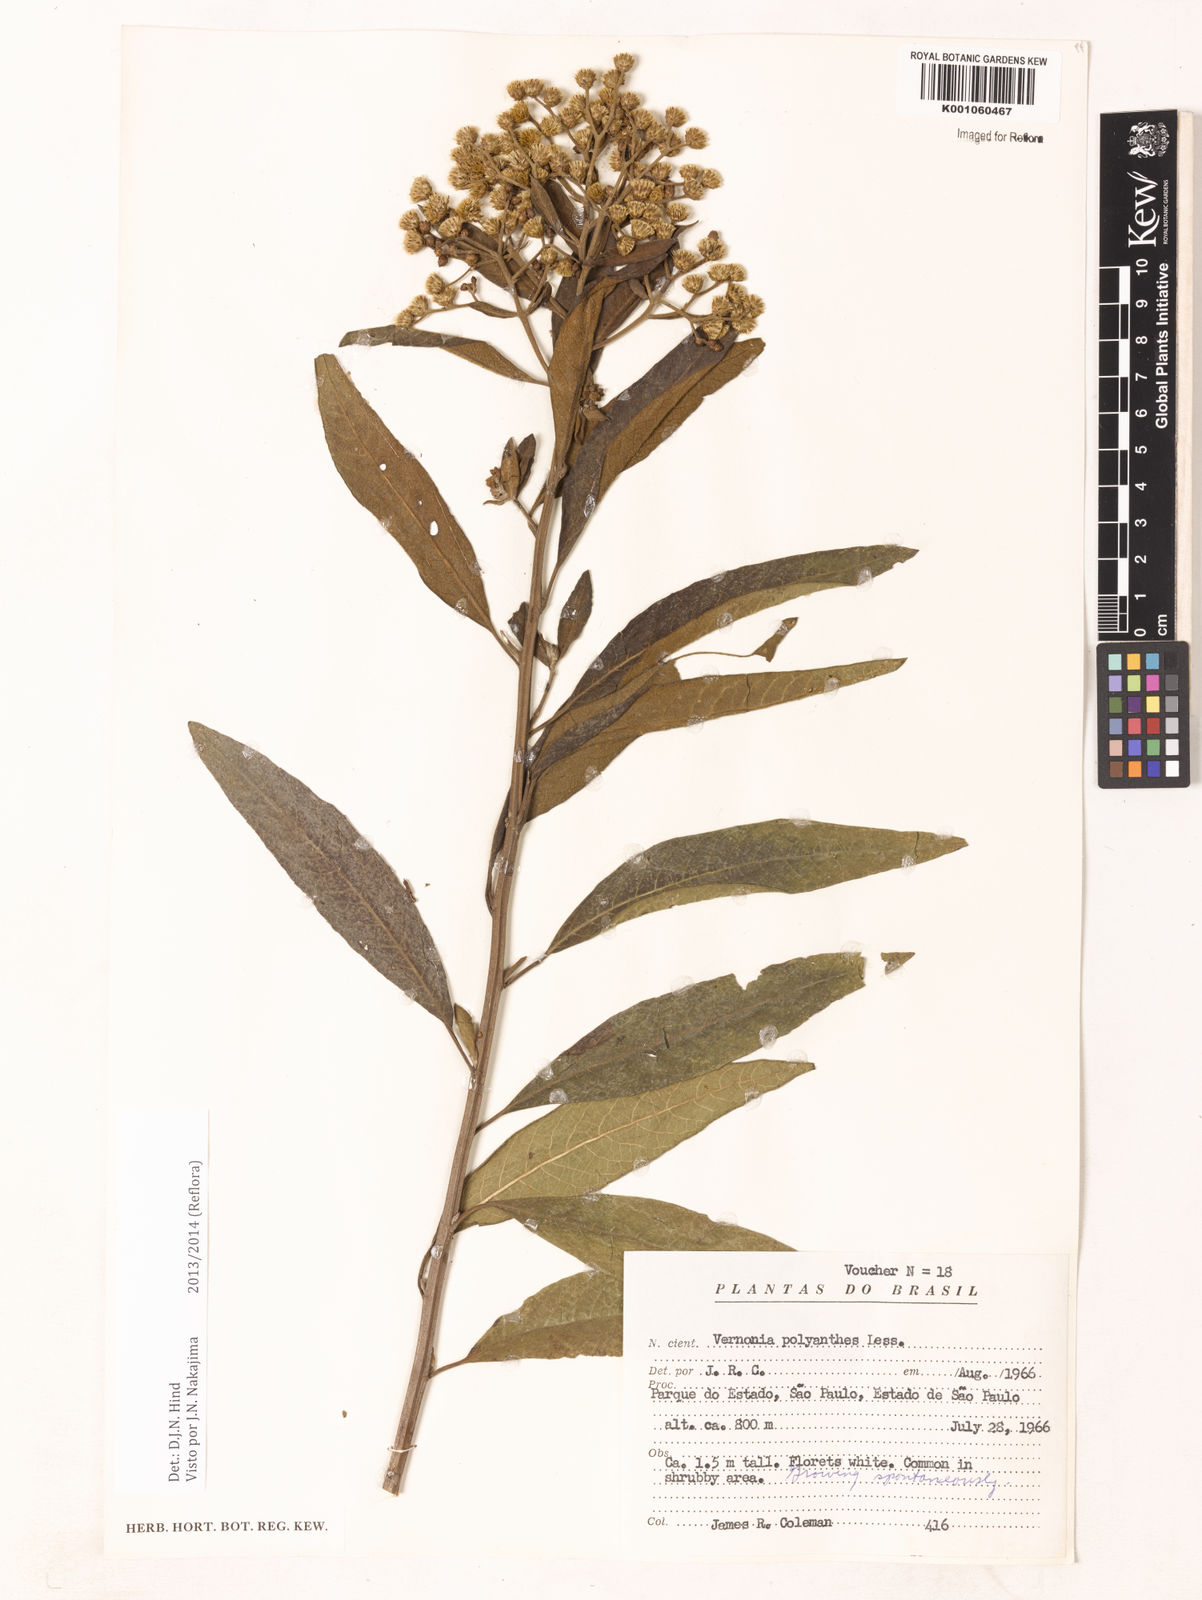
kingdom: Plantae
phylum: Tracheophyta
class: Magnoliopsida
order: Asterales
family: Asteraceae
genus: Vernonanthura
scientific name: Vernonanthura polyanthes
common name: Tree aster
